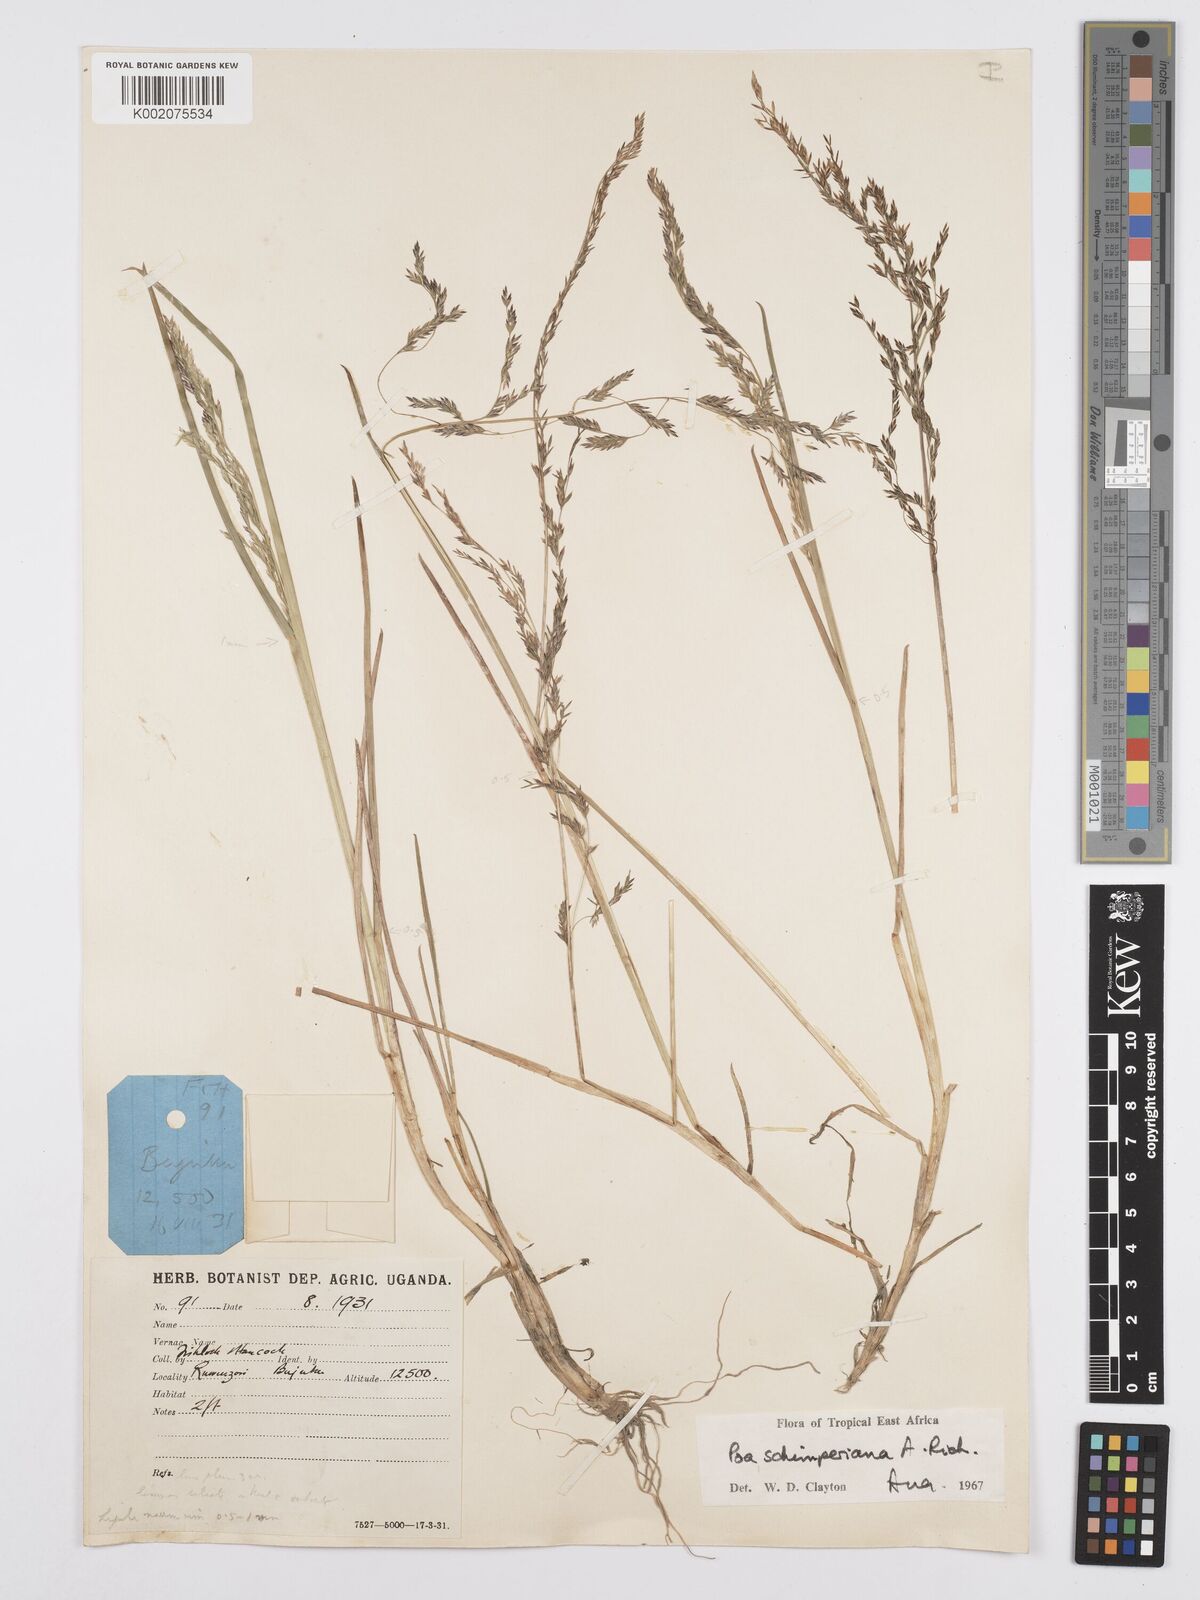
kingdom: Plantae
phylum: Tracheophyta
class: Liliopsida
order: Poales
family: Poaceae
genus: Poa
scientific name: Poa schimperiana
